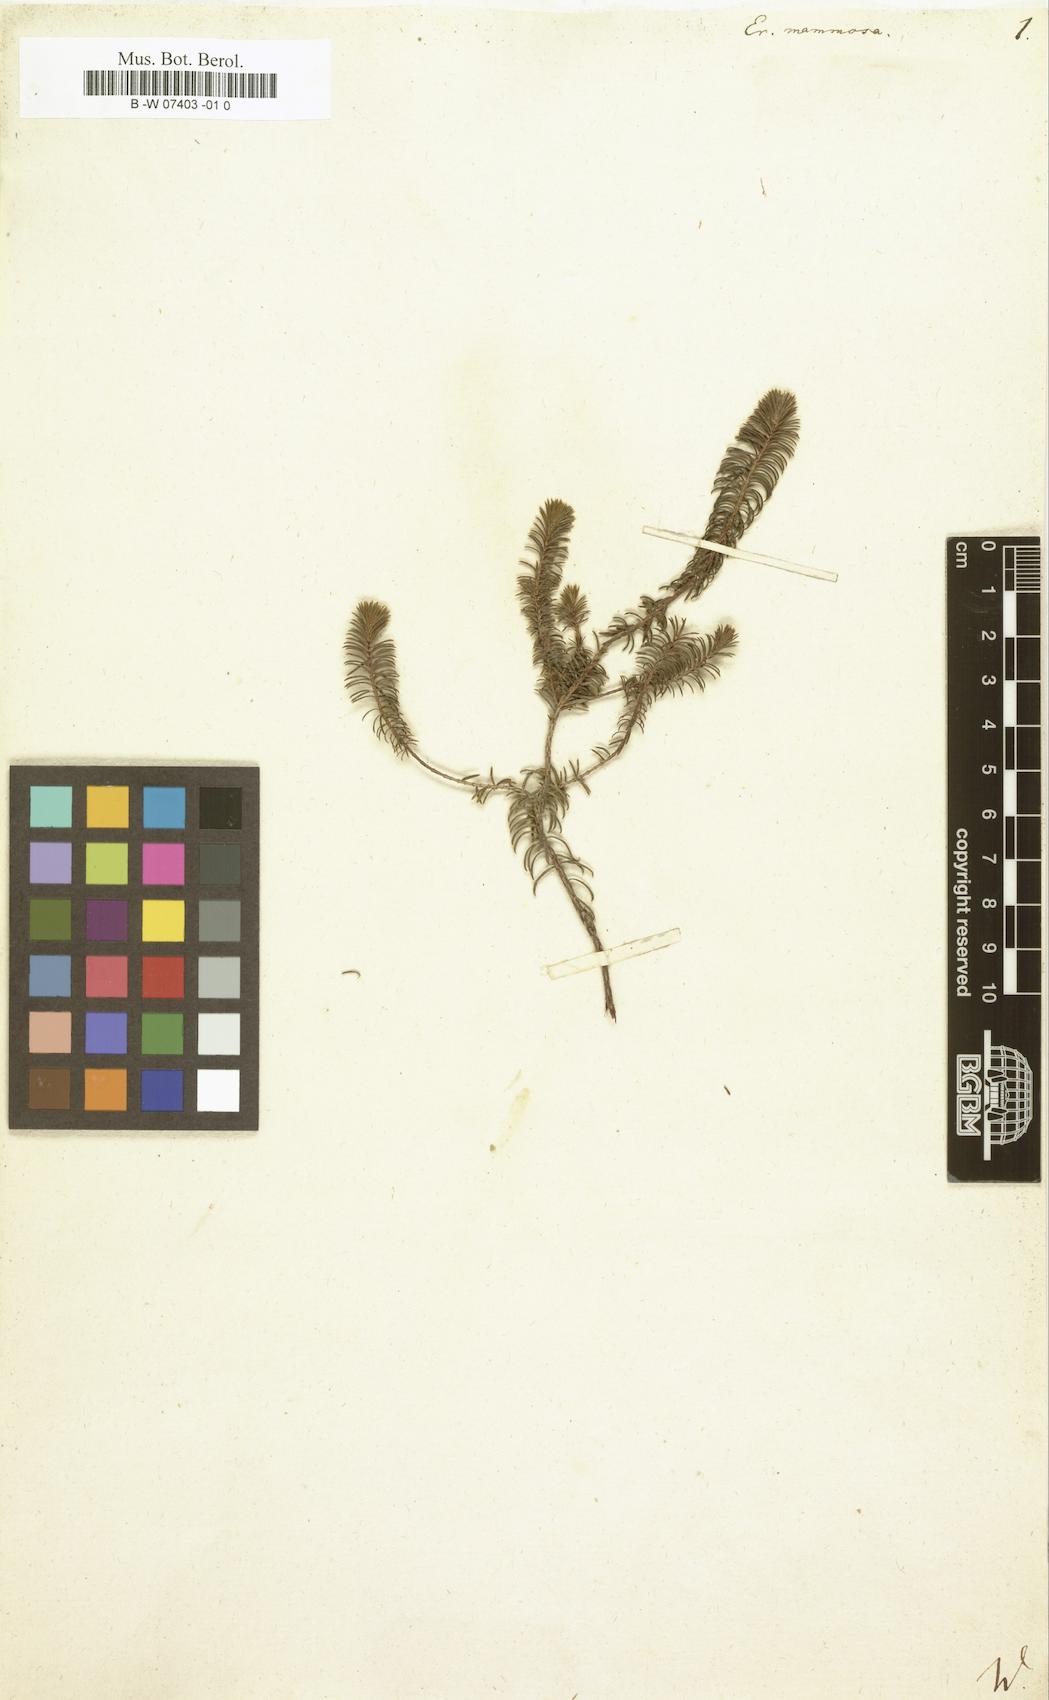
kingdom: Plantae
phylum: Tracheophyta
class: Magnoliopsida
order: Ericales
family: Ericaceae
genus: Erica
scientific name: Erica mammosa
